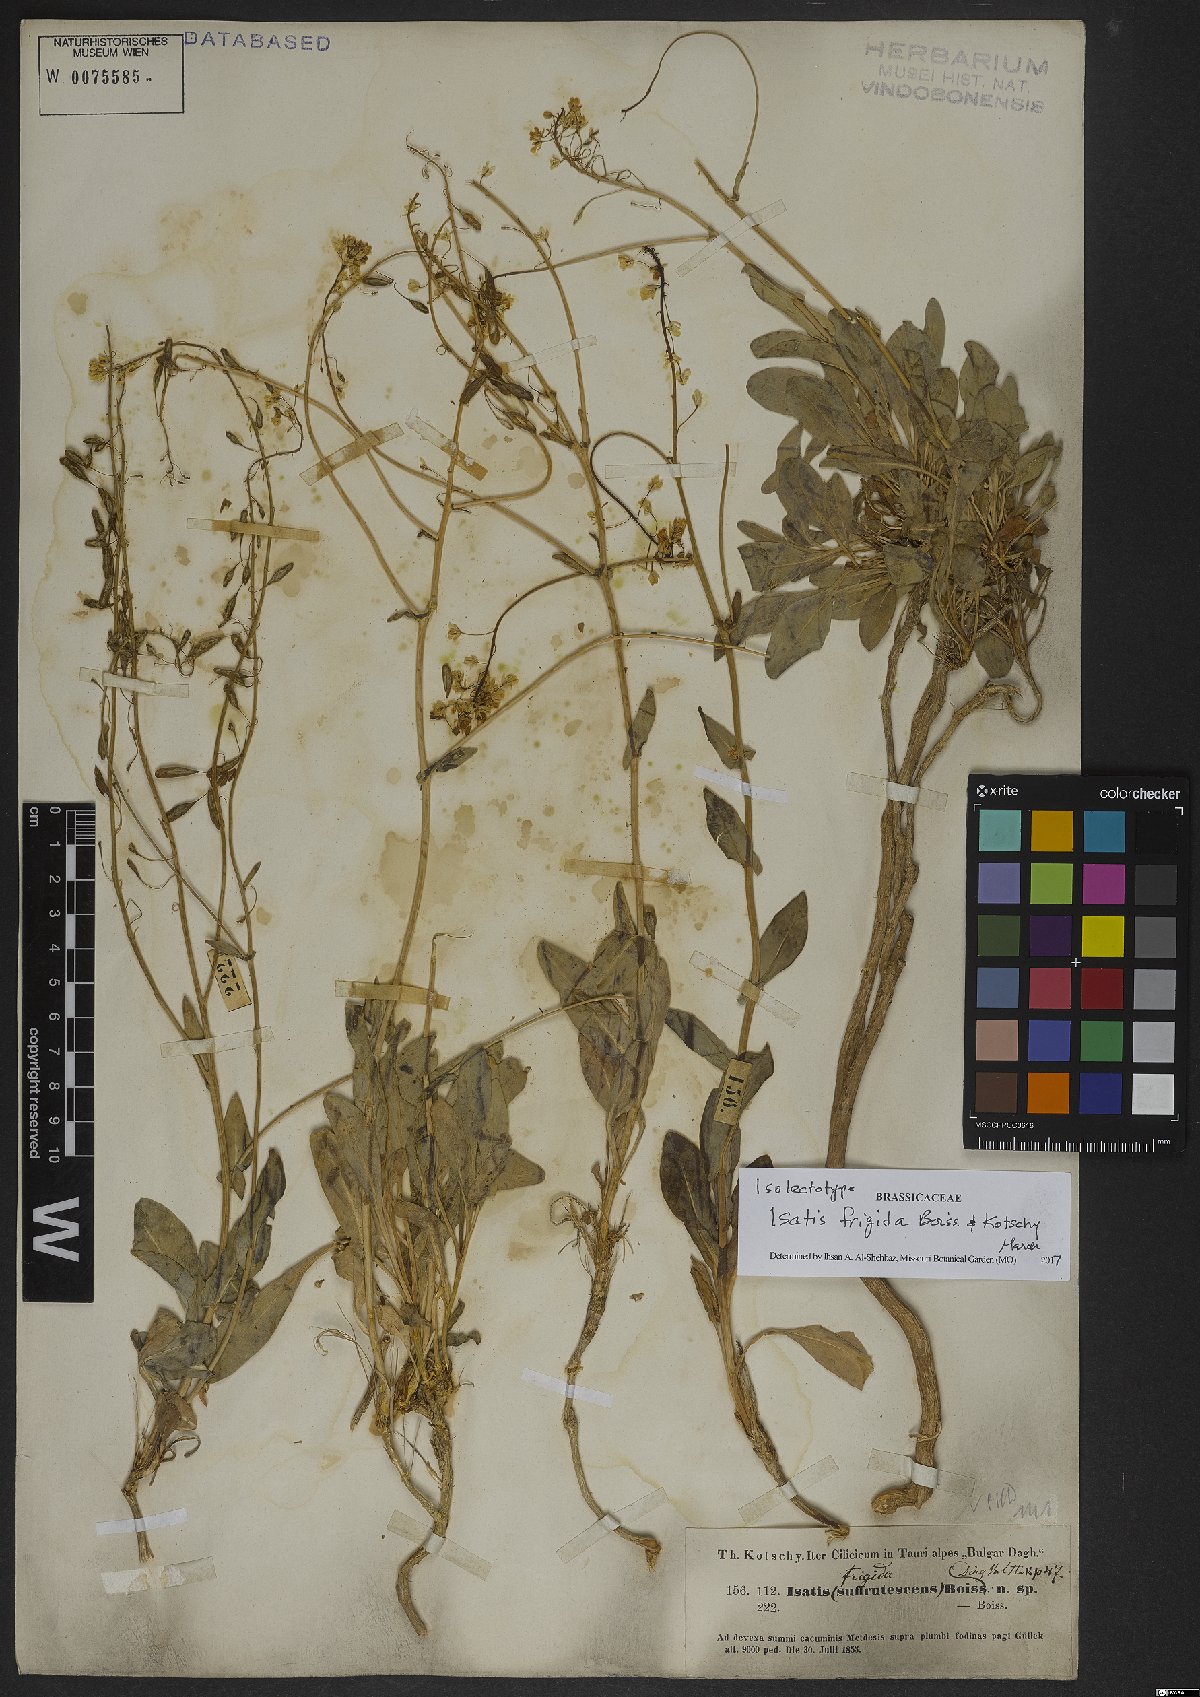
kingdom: Plantae
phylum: Tracheophyta
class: Magnoliopsida
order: Brassicales
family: Brassicaceae
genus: Isatis
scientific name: Isatis frigida
